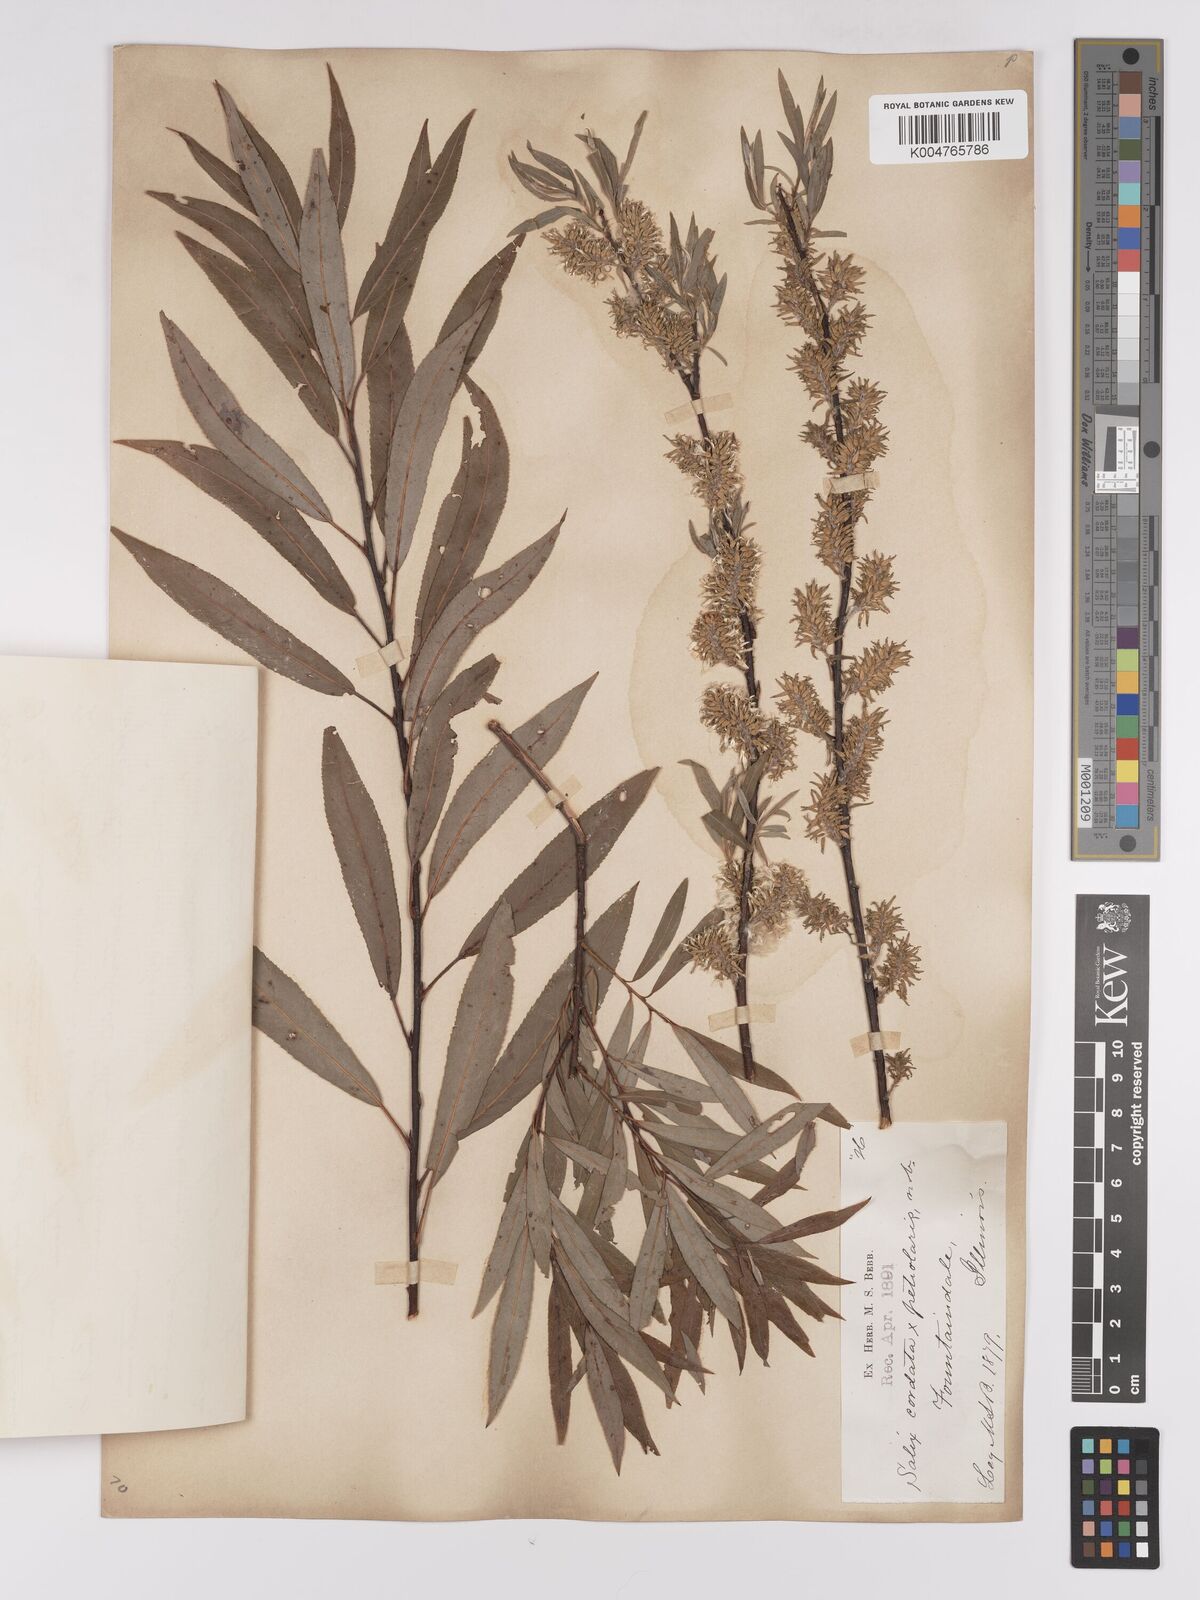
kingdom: Plantae
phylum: Tracheophyta
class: Magnoliopsida
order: Malpighiales
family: Salicaceae
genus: Salix
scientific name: Salix cordata
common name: Heart-leaf willow
